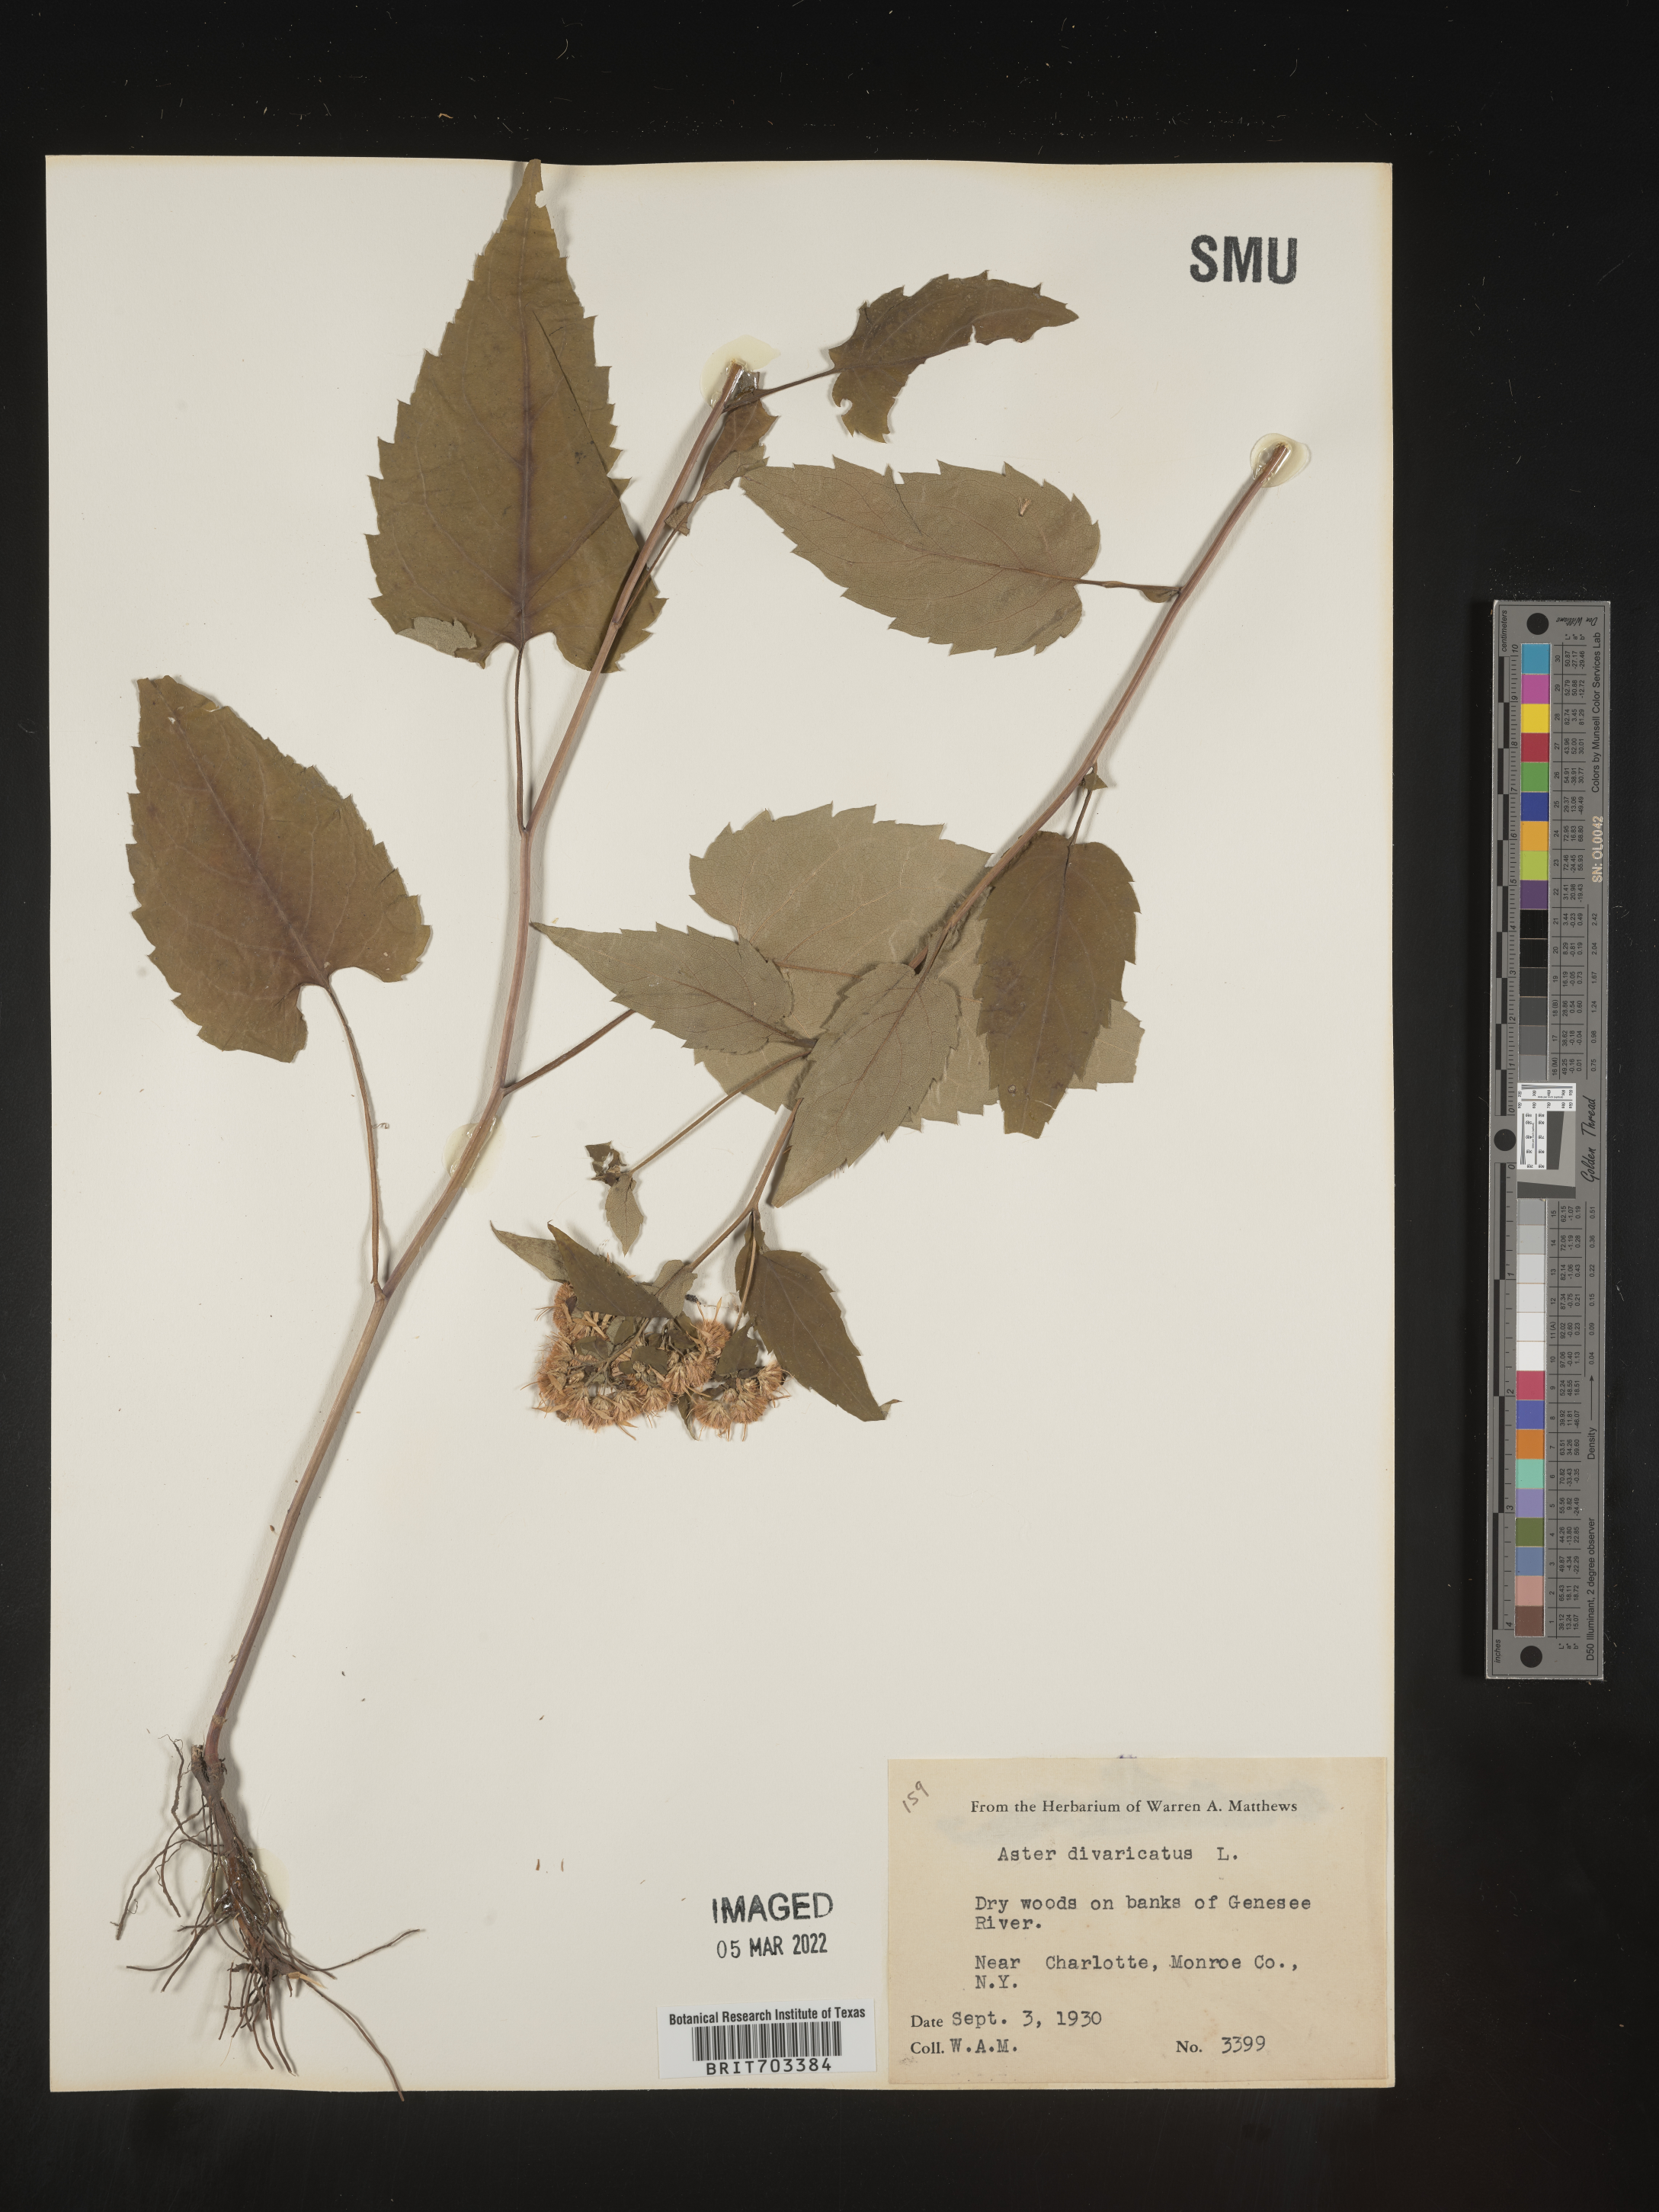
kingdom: Plantae
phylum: Tracheophyta
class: Magnoliopsida
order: Asterales
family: Asteraceae
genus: Eurybia
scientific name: Eurybia divaricata
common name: White wood aster
